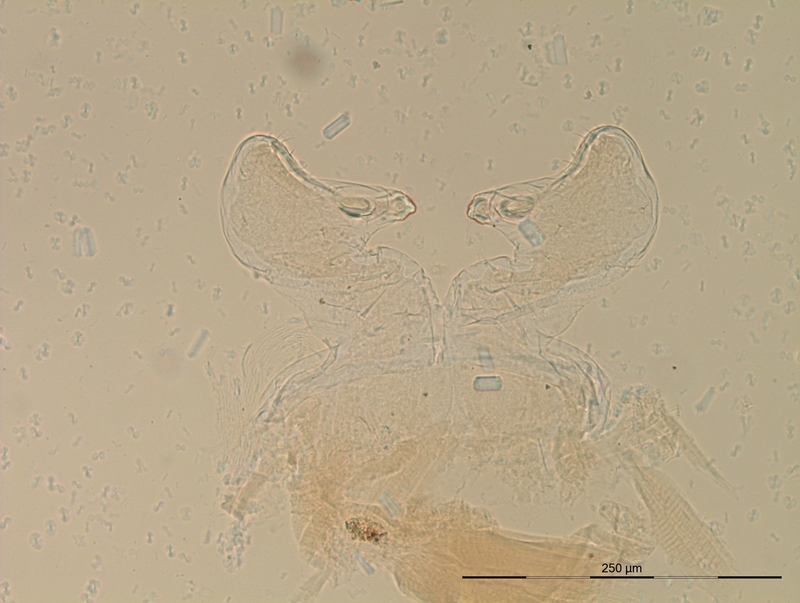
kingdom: Animalia
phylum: Arthropoda
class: Diplopoda
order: Julida
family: Blaniulidae
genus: Cibiniulus
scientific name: Cibiniulus phlepsii
